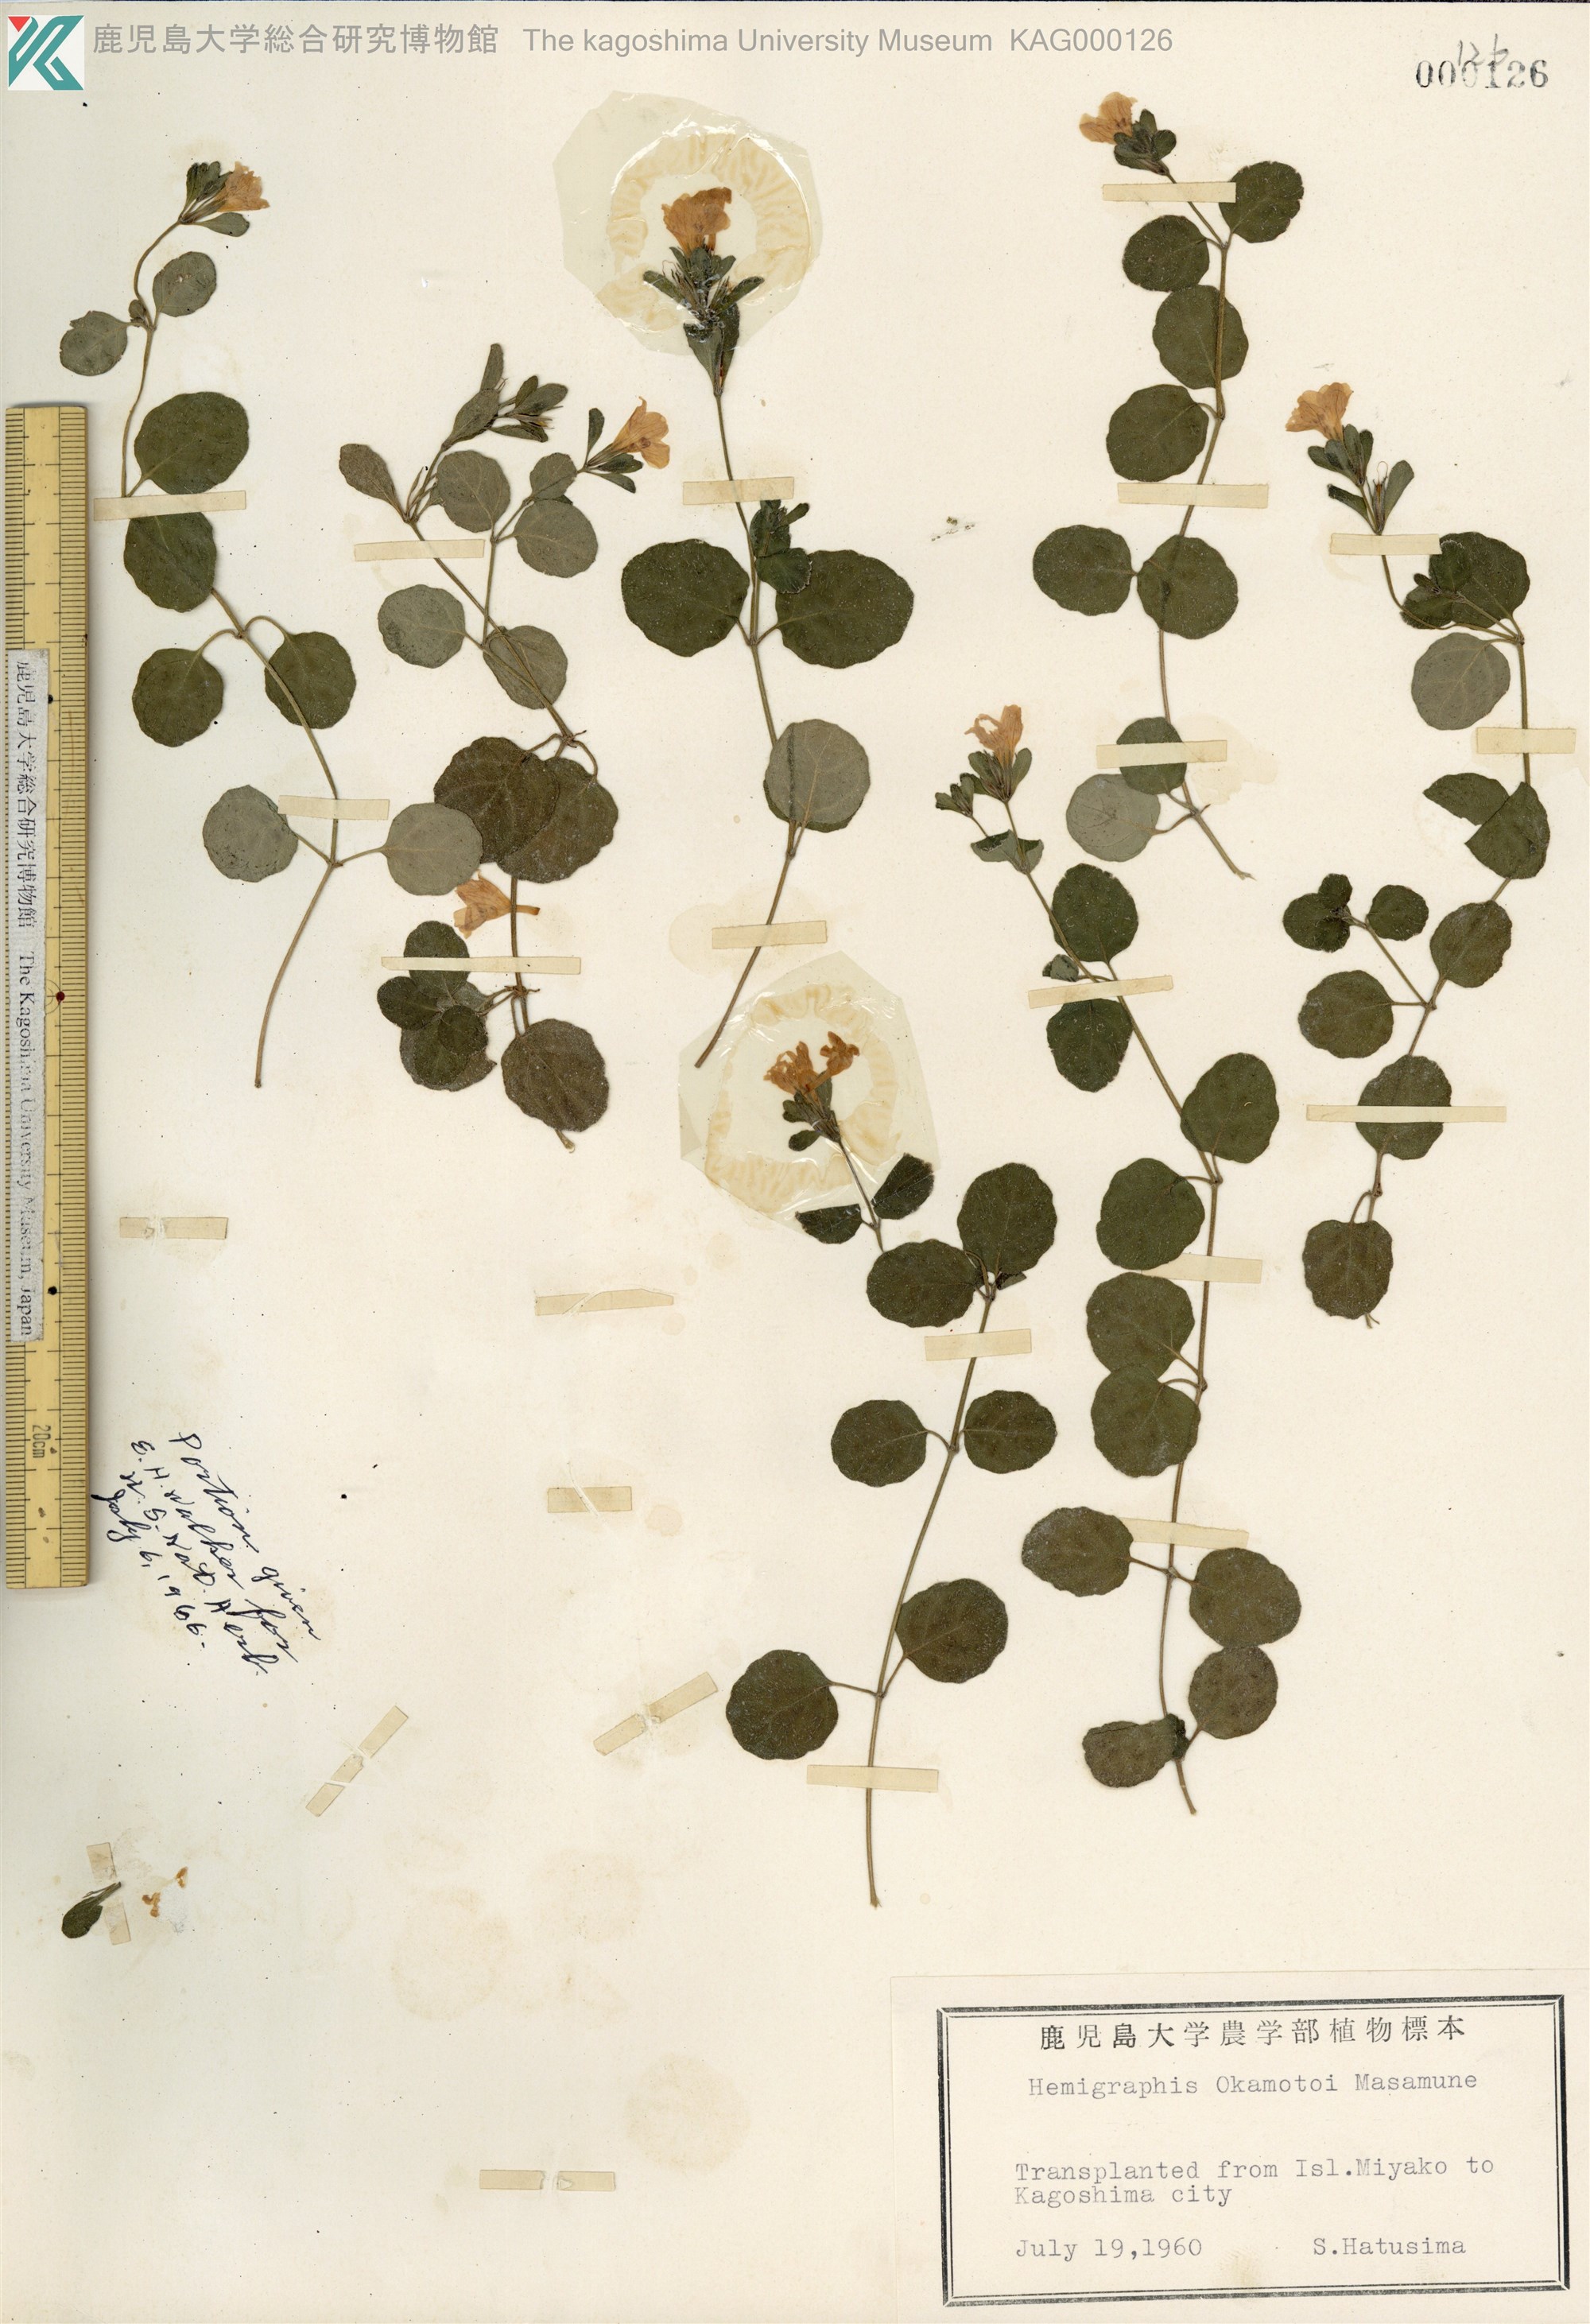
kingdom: Plantae
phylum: Tracheophyta
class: Magnoliopsida
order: Lamiales
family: Acanthaceae
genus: Hemigraphis
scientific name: Hemigraphis reptans
